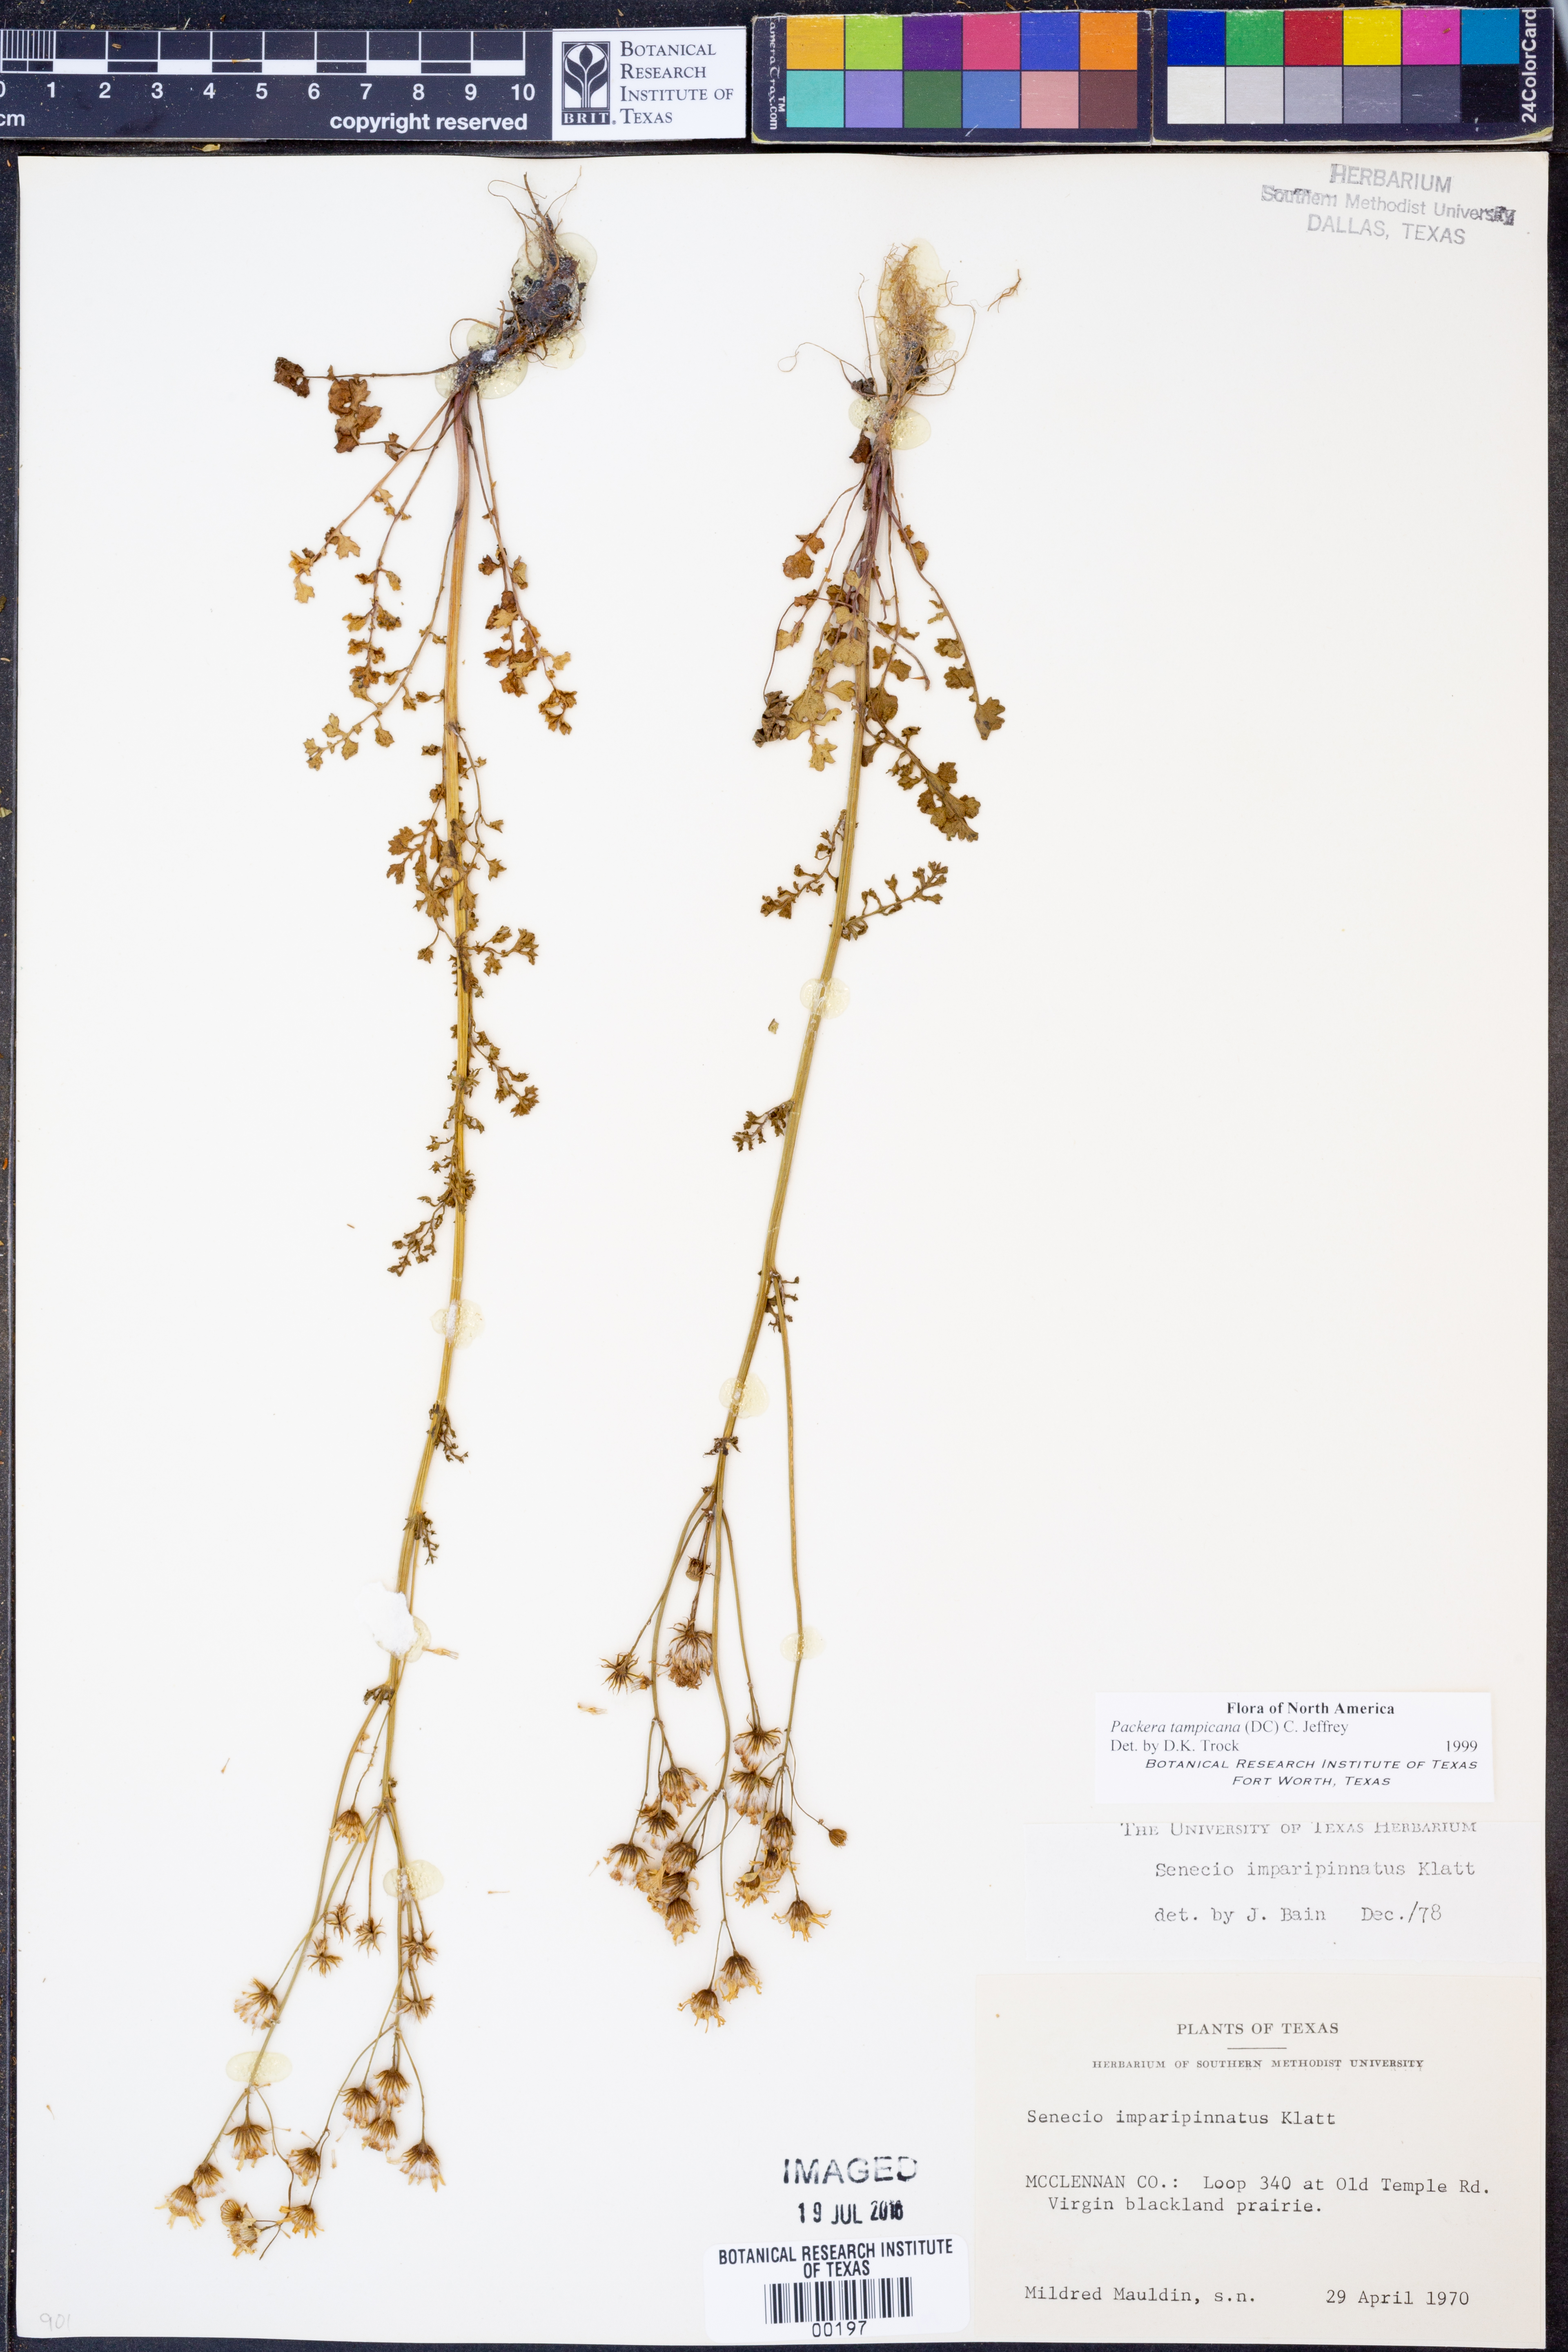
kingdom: Plantae
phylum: Tracheophyta
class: Magnoliopsida
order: Asterales
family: Asteraceae
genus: Packera
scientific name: Packera tampicana
